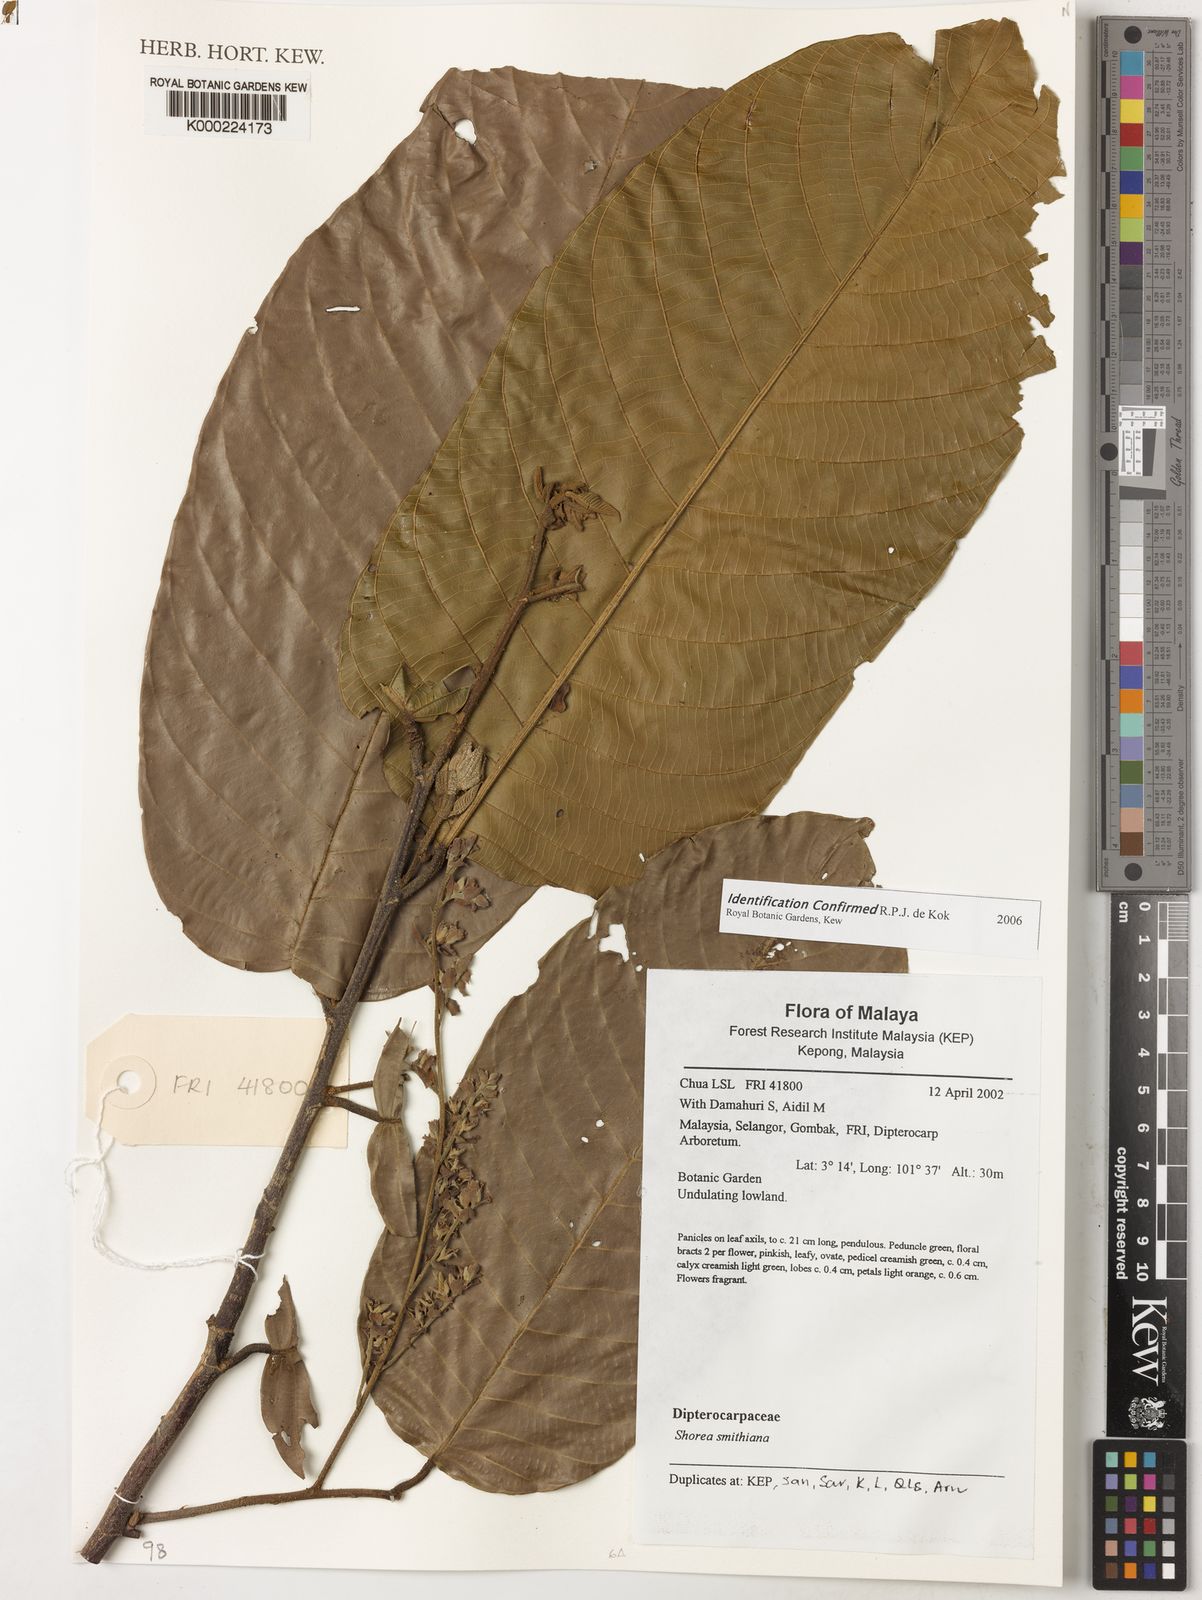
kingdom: Plantae
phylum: Tracheophyta
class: Magnoliopsida
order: Malvales
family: Dipterocarpaceae
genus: Dipterocarpus
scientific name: Dipterocarpus
